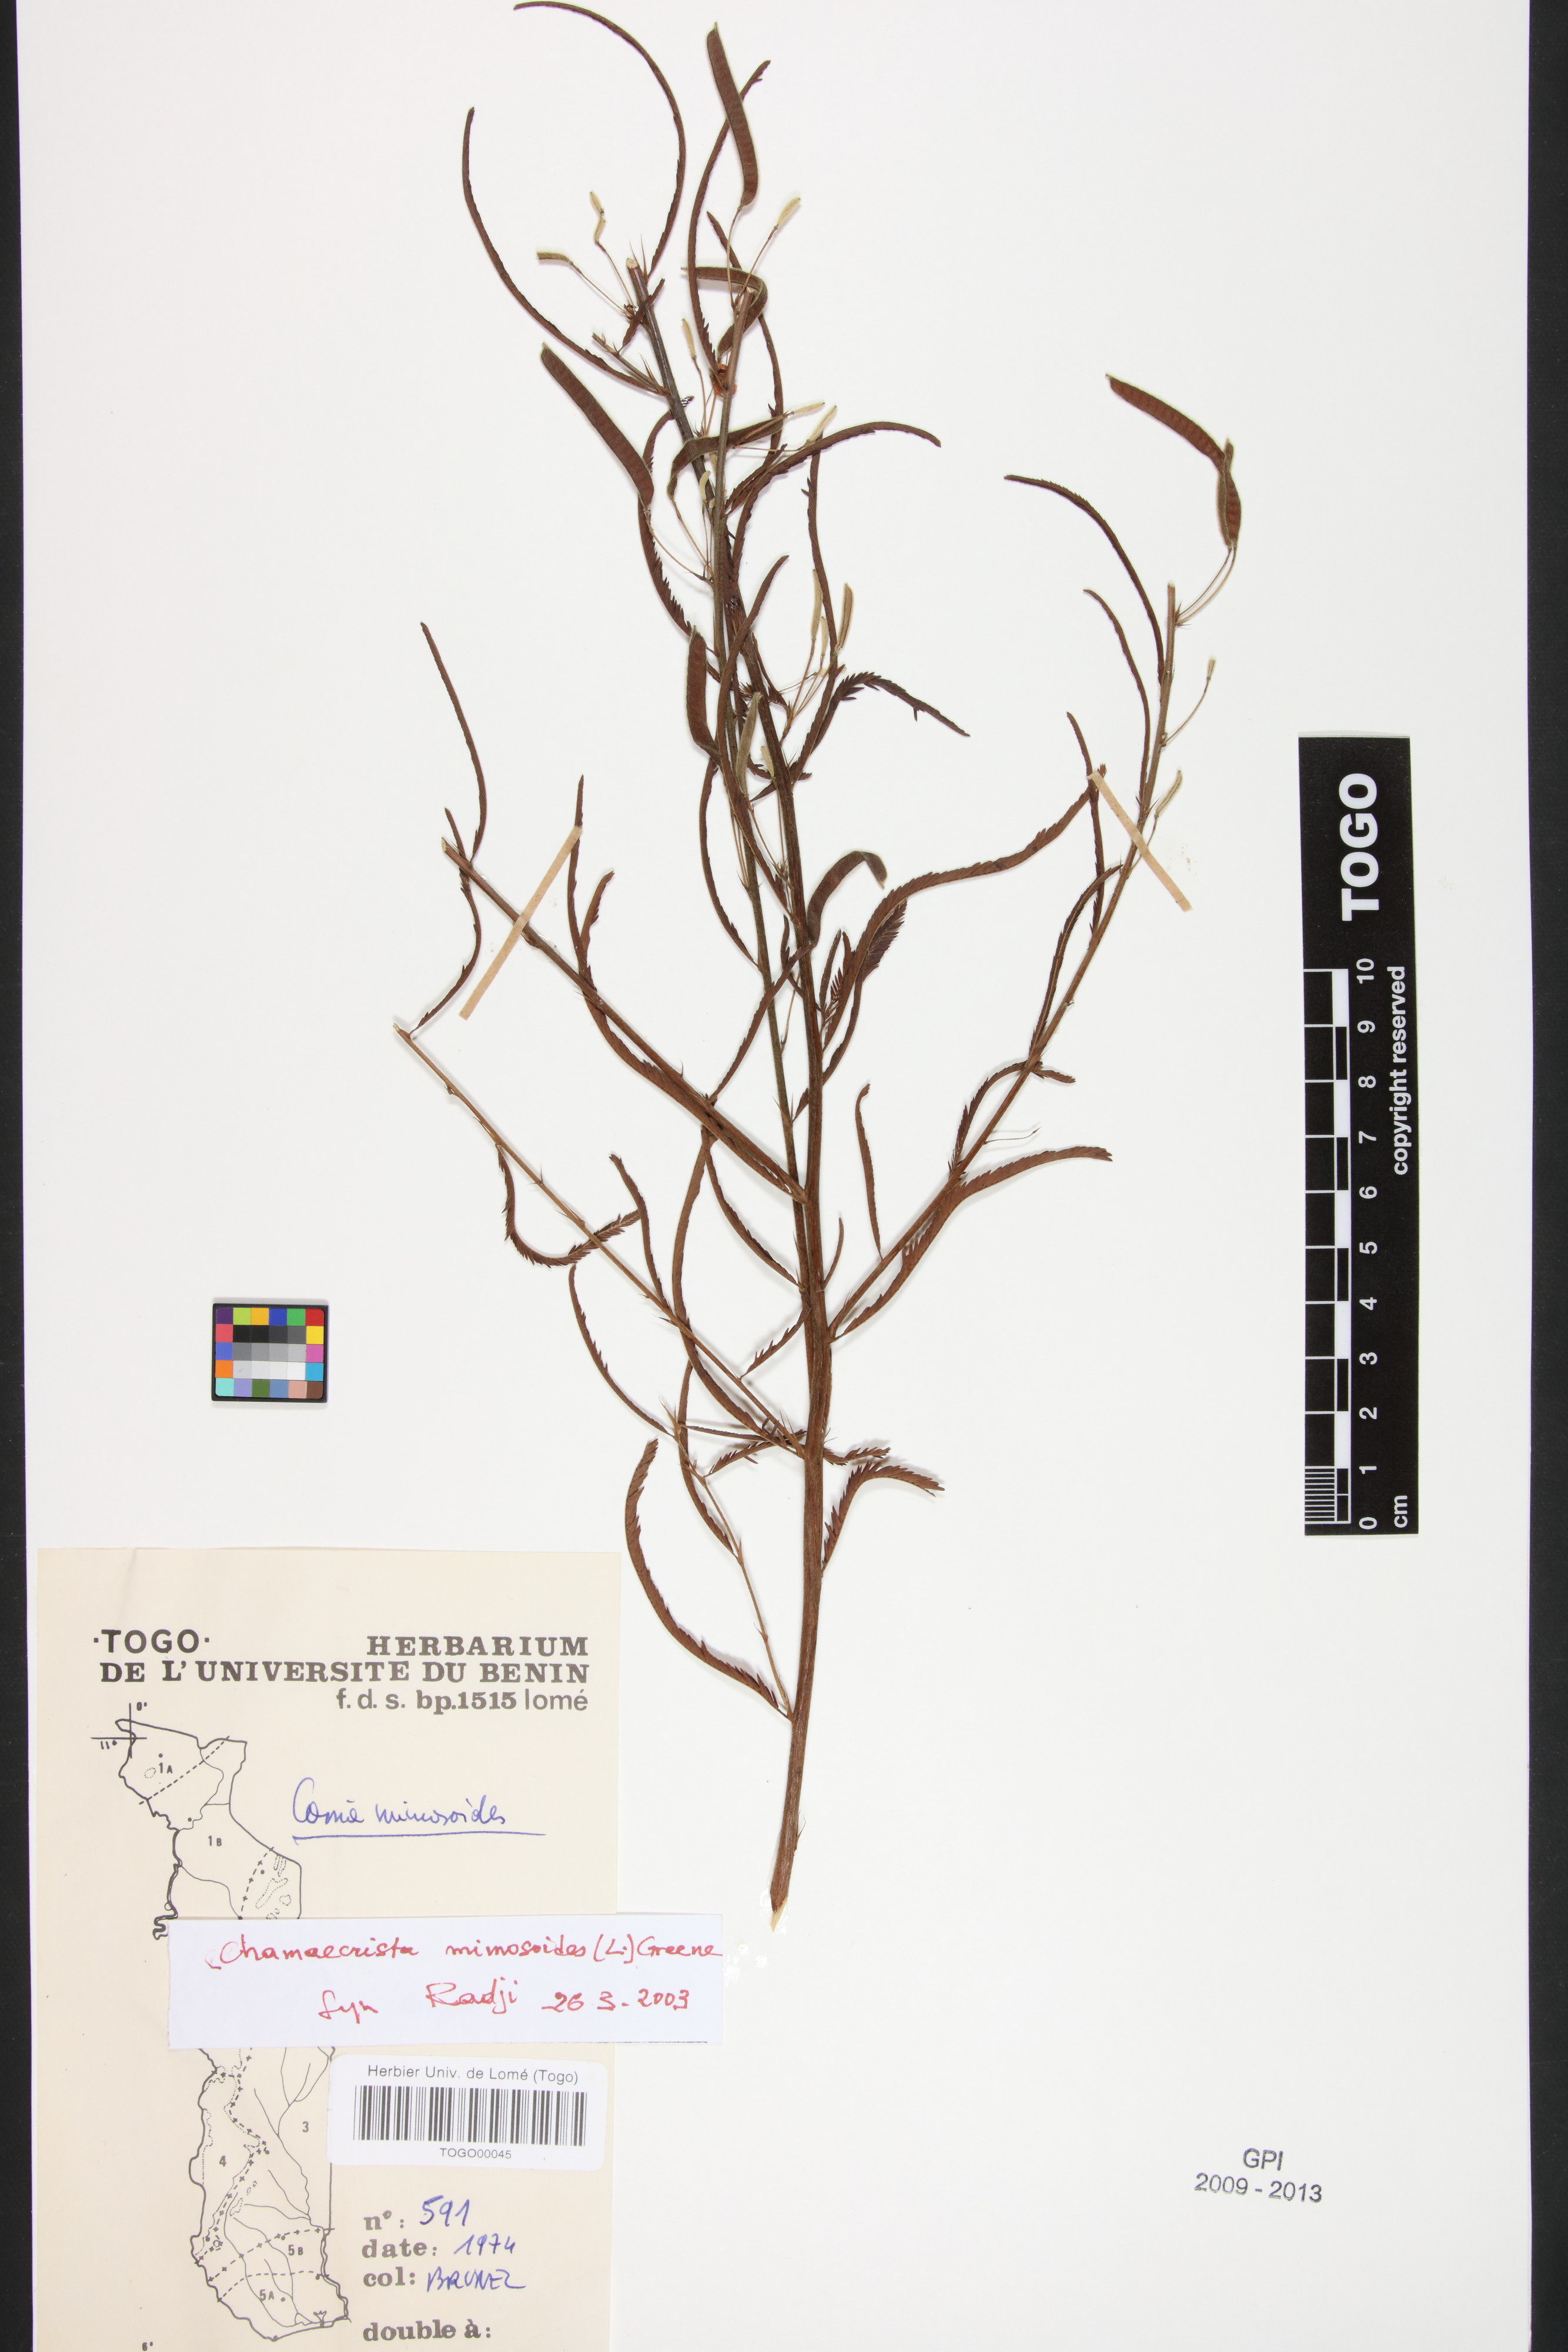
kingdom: Plantae
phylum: Tracheophyta
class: Magnoliopsida
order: Fabales
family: Fabaceae
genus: Chamaecrista
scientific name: Chamaecrista mimosoides
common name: Fish-bone cassia
